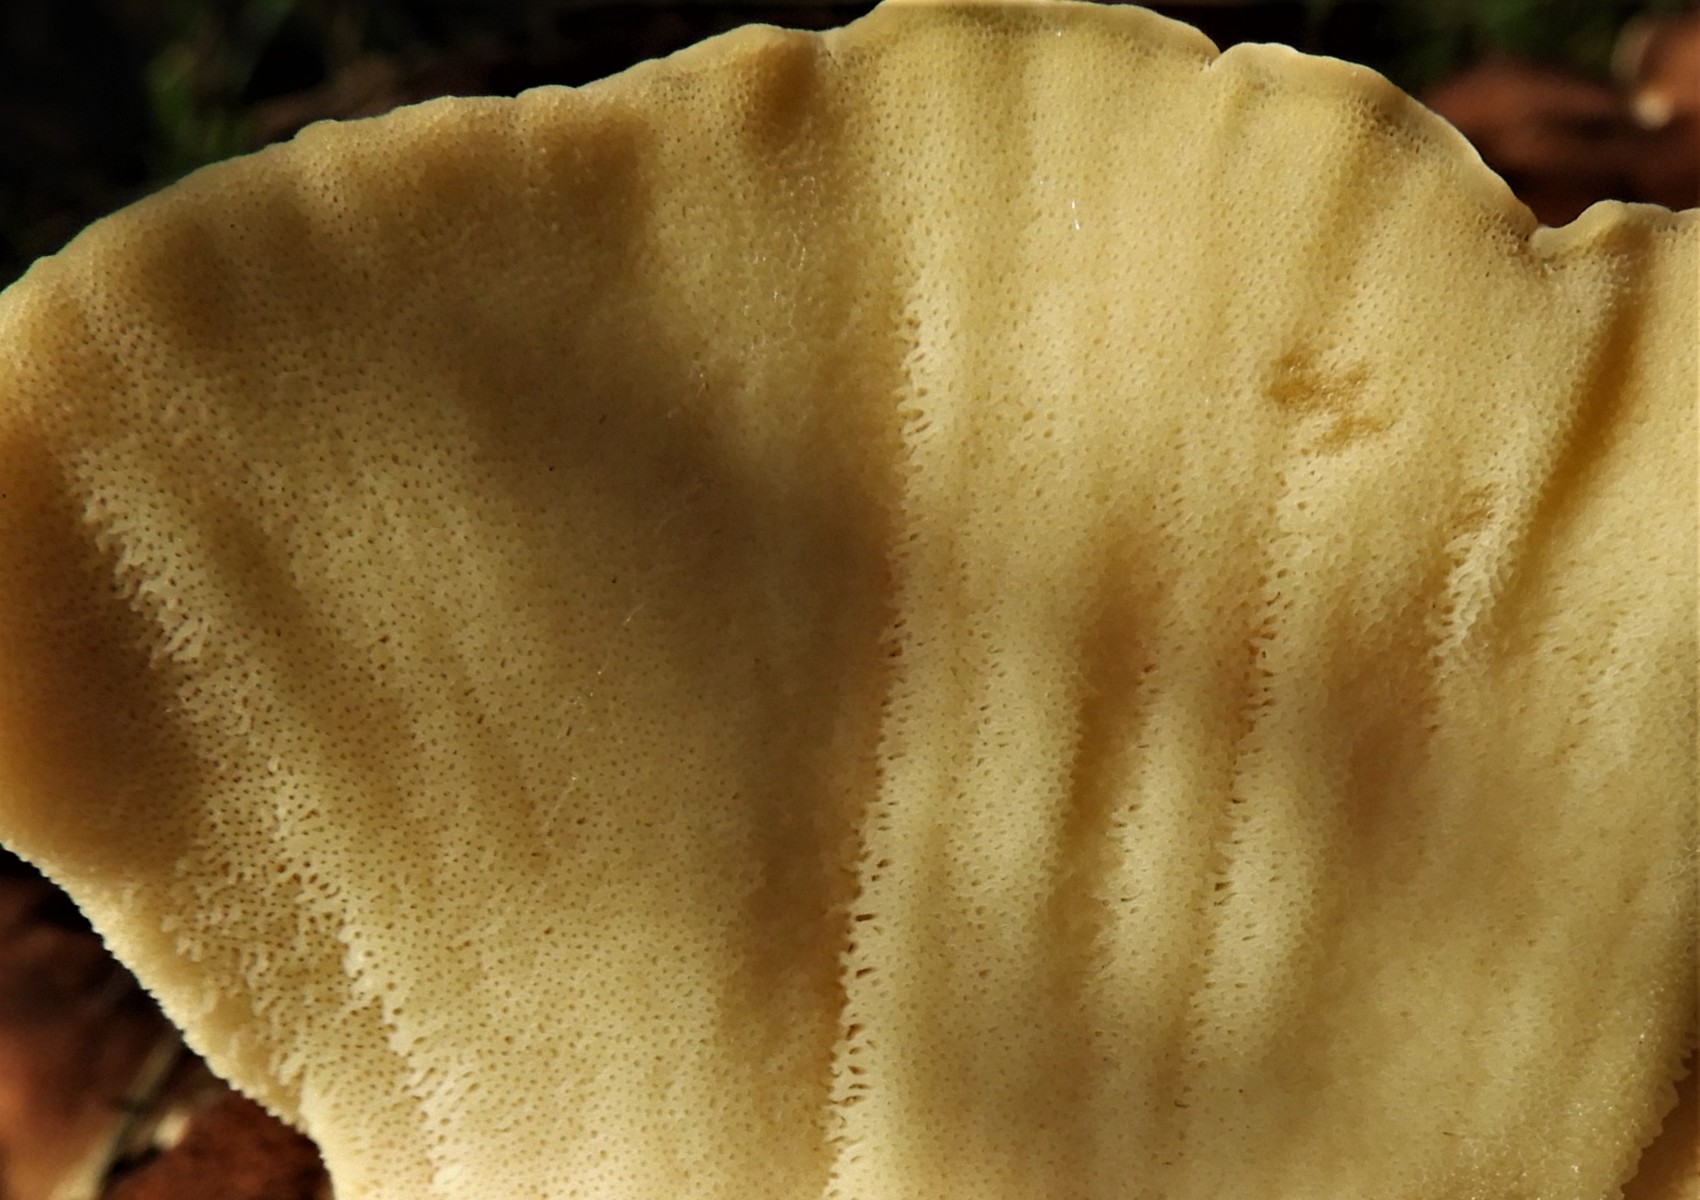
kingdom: Fungi
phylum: Basidiomycota
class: Agaricomycetes
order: Polyporales
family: Meripilaceae
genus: Meripilus
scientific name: Meripilus giganteus
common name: kæmpeporesvamp
